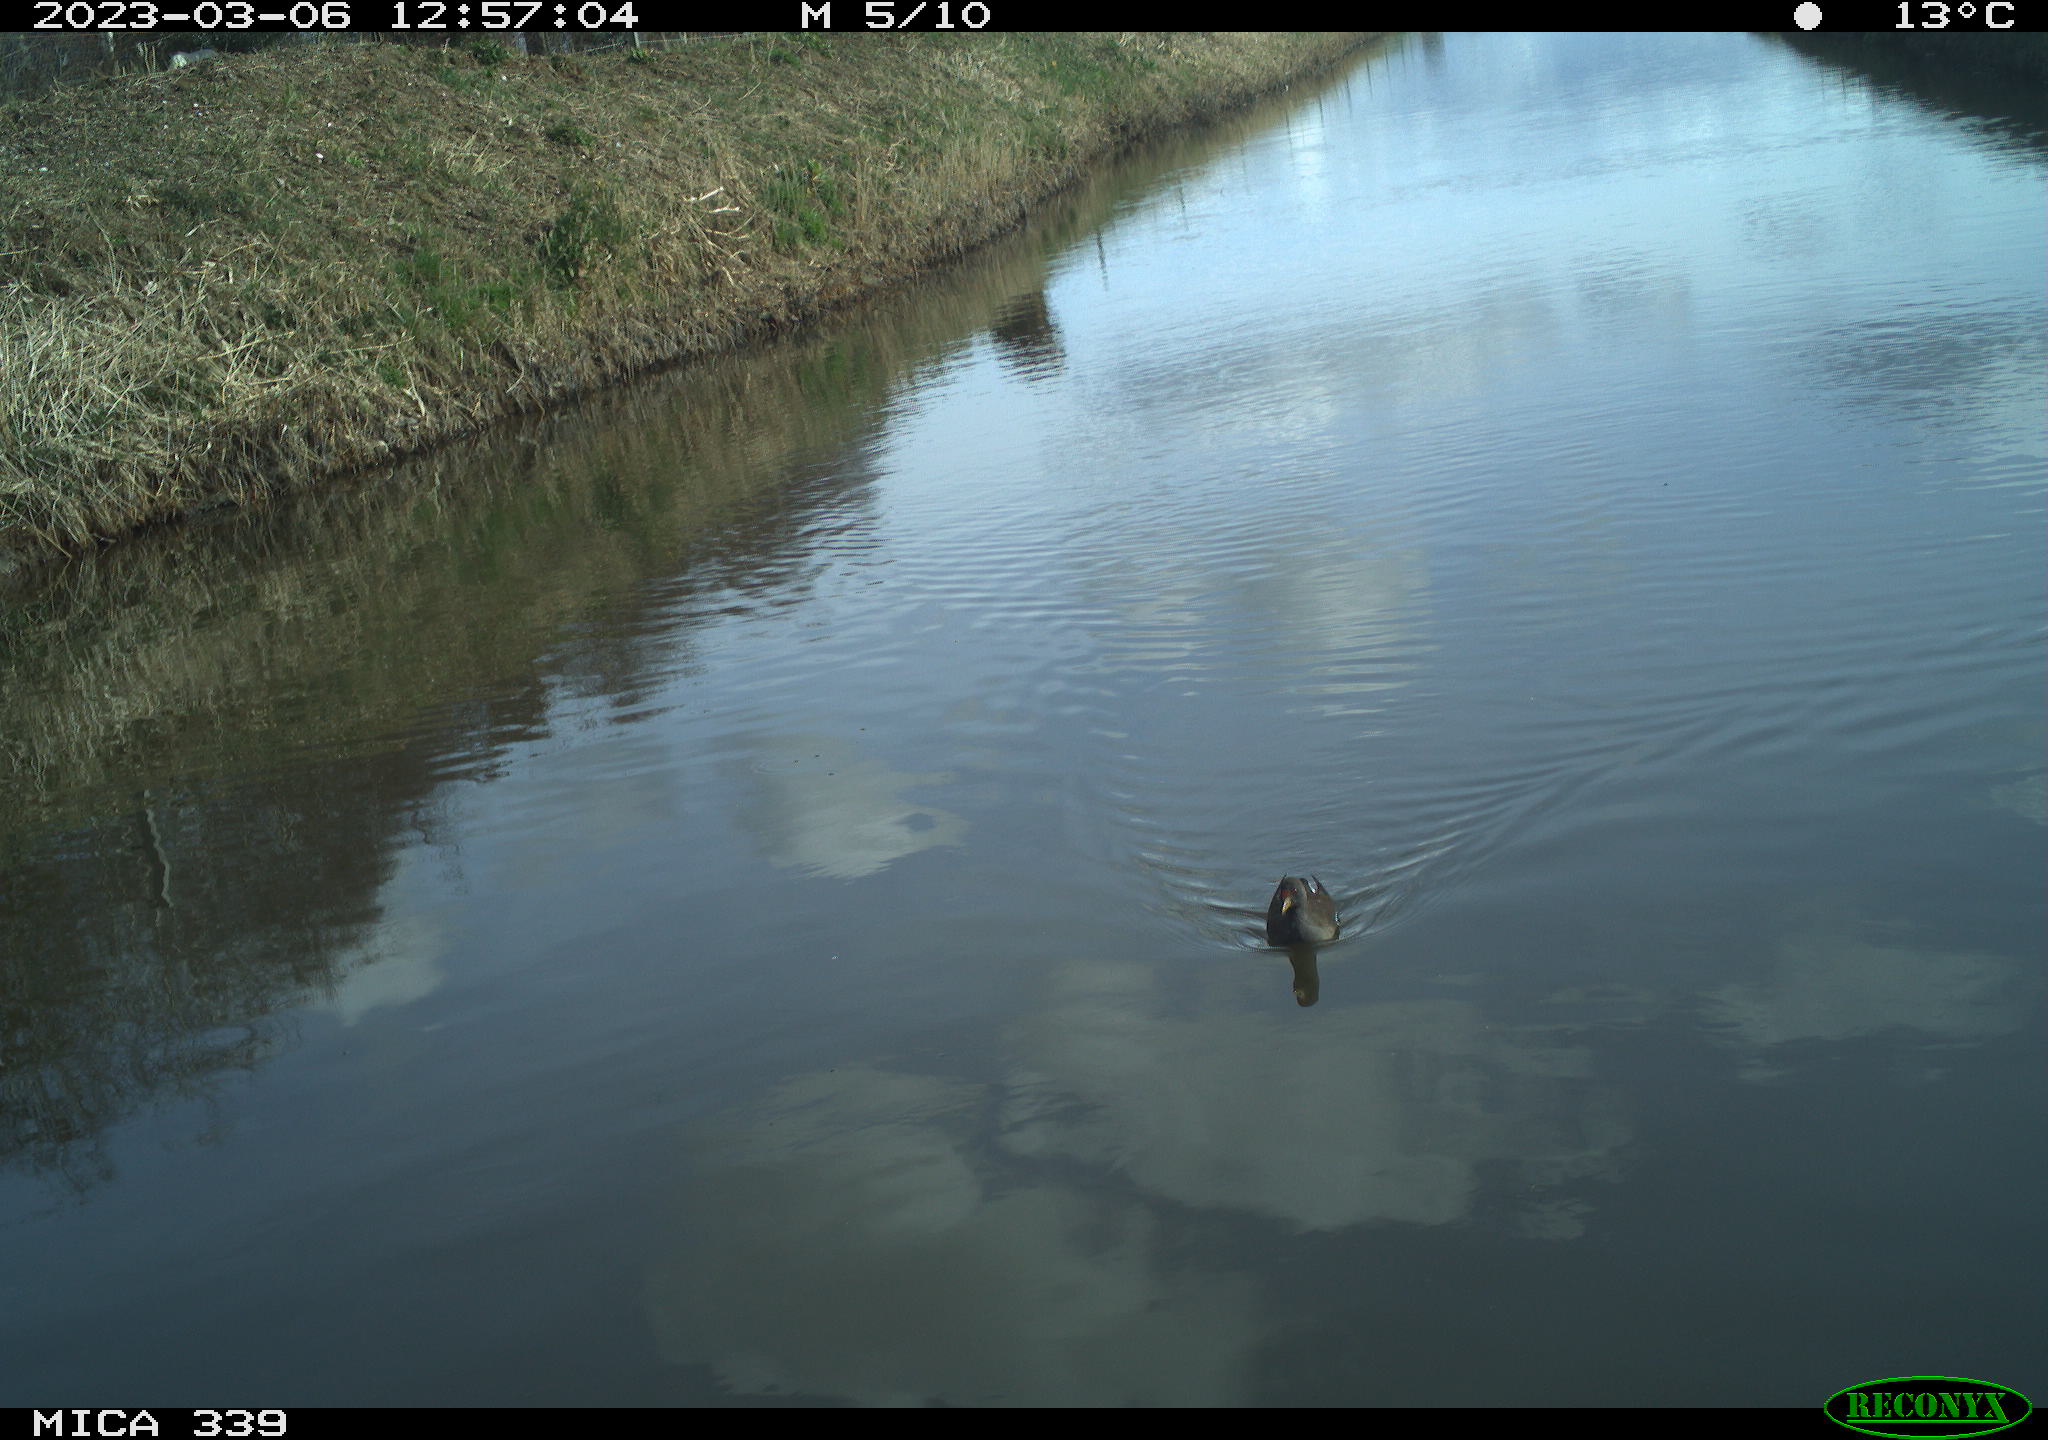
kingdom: Animalia
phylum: Chordata
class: Aves
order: Gruiformes
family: Rallidae
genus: Gallinula
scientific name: Gallinula chloropus
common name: Common moorhen
